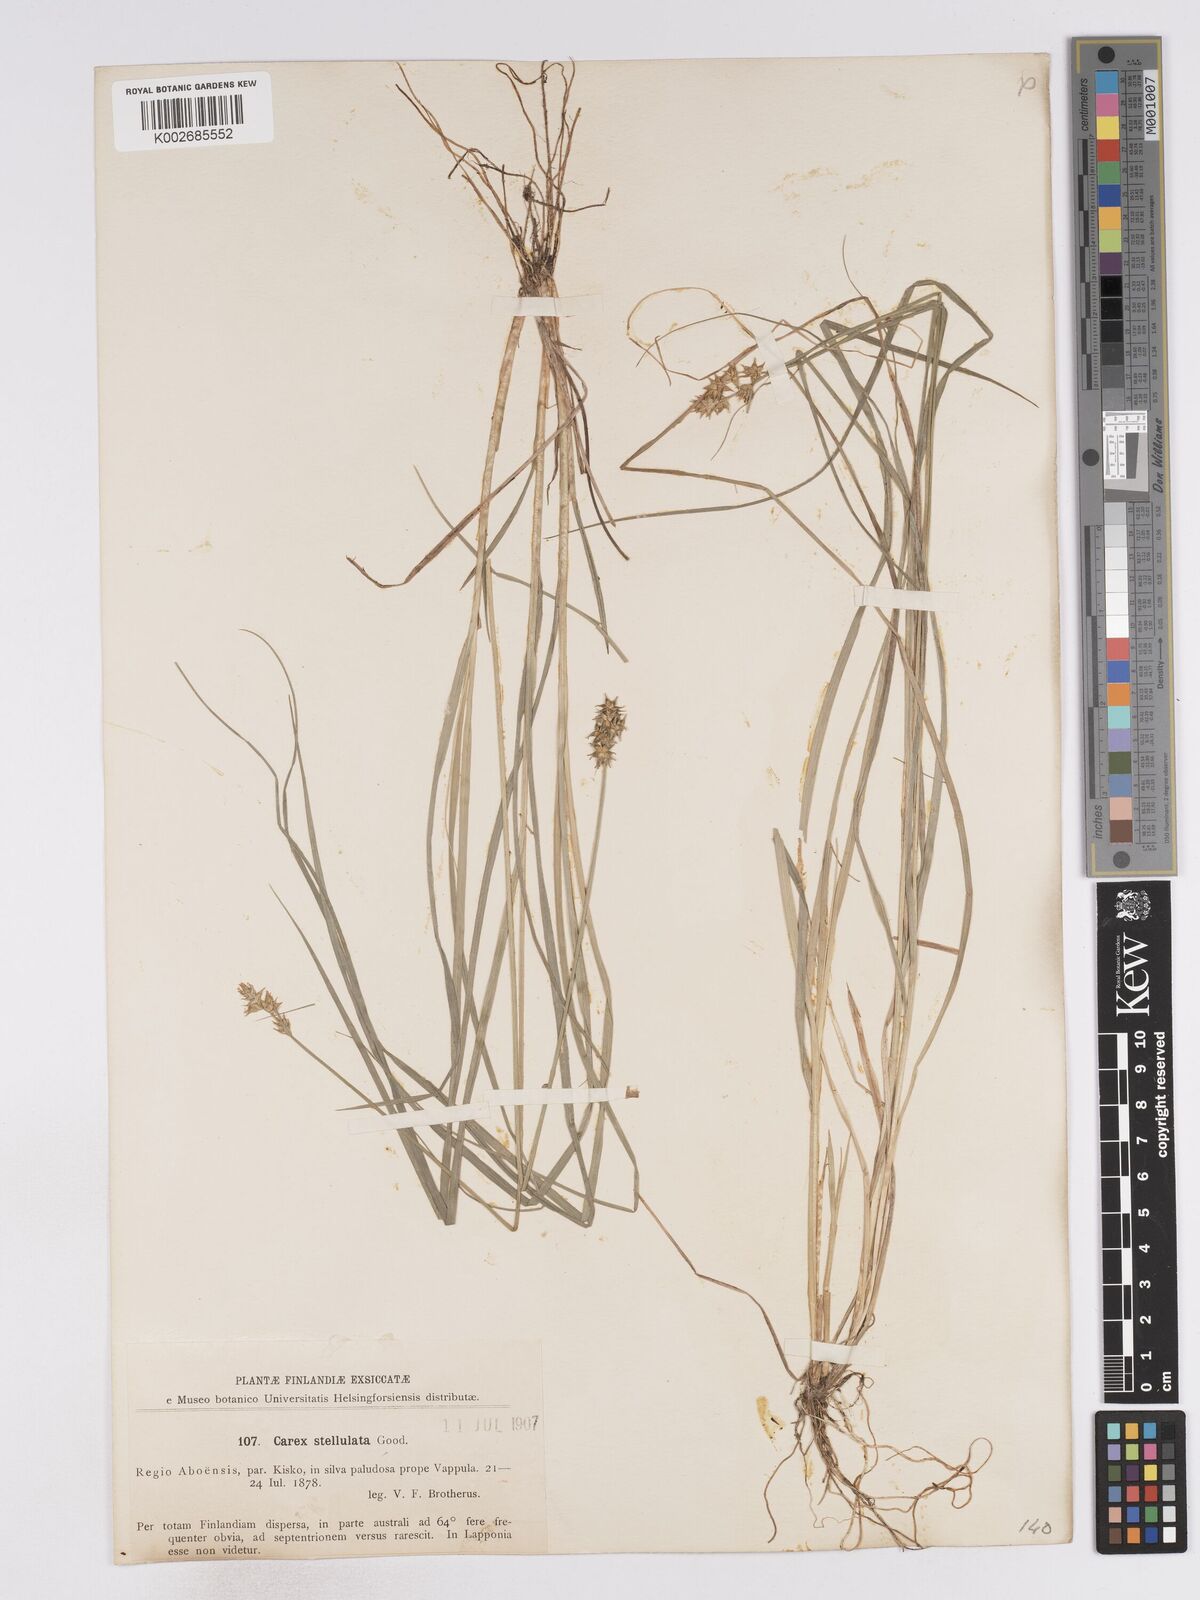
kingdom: Plantae
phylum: Tracheophyta
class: Liliopsida
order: Poales
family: Cyperaceae
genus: Carex
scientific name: Carex echinata
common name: Star sedge
